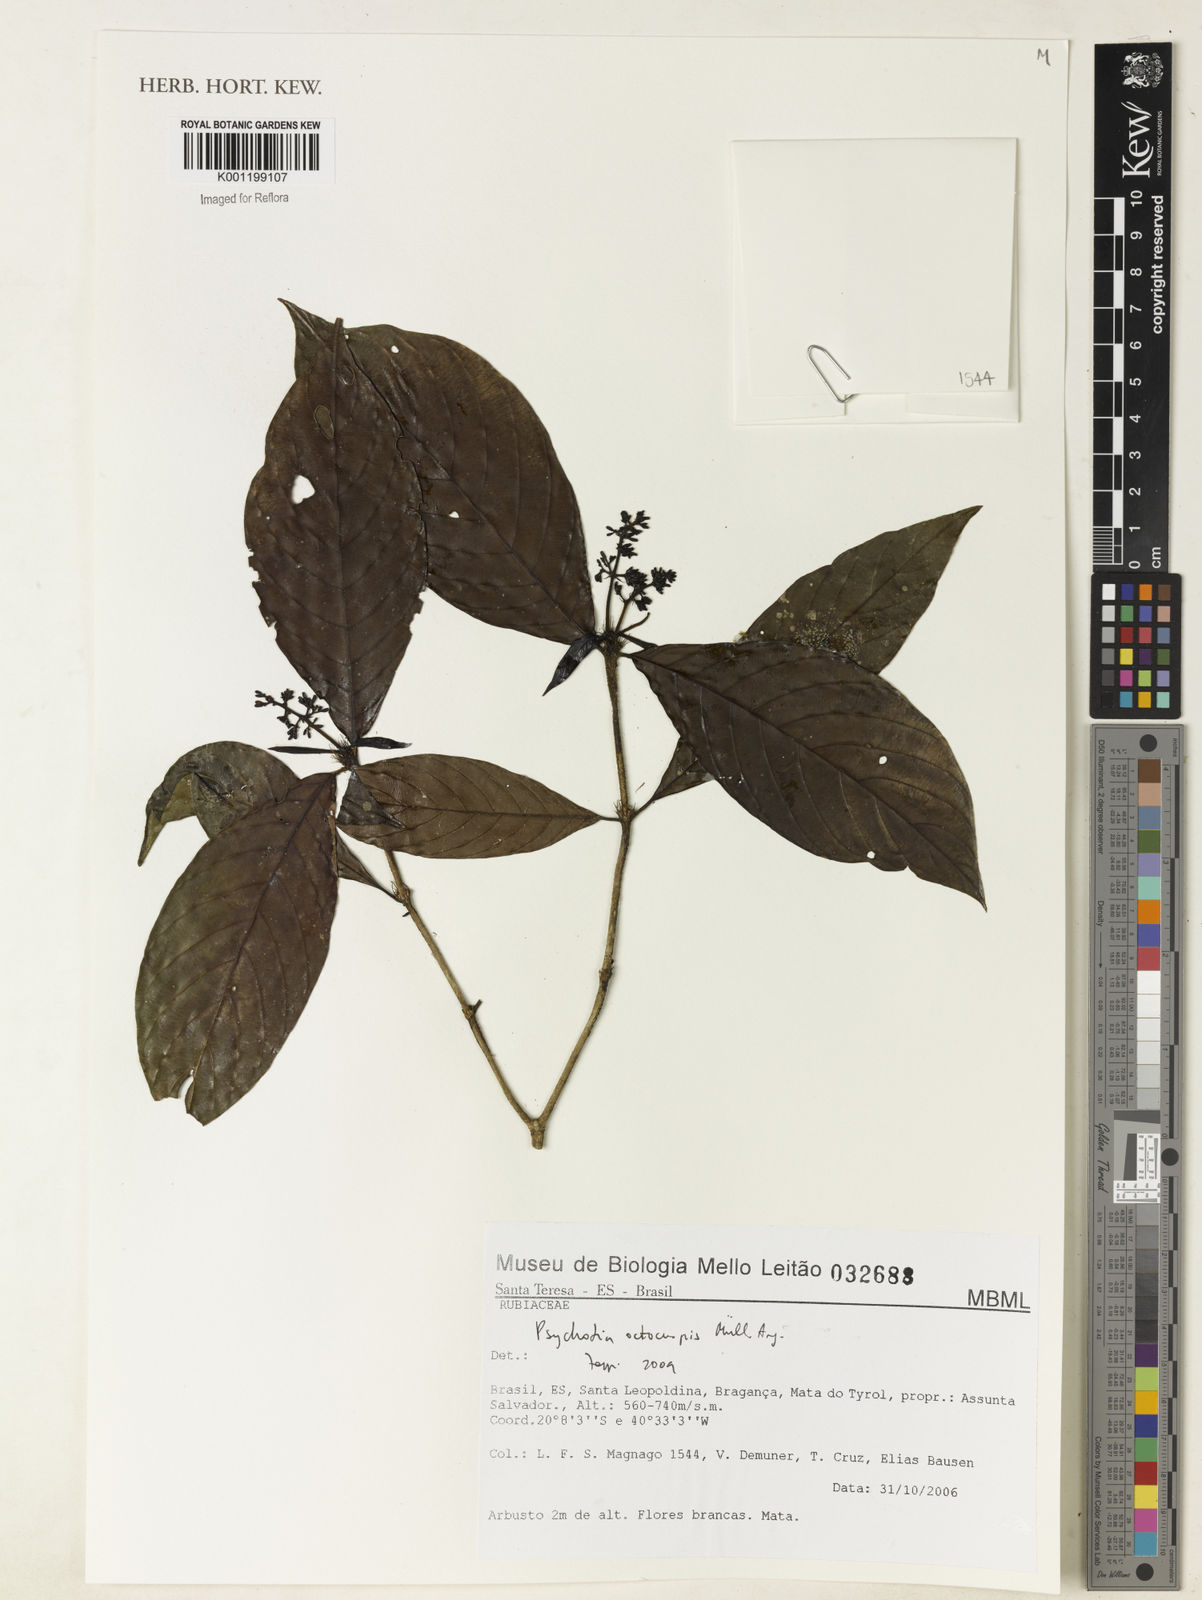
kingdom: Plantae
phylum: Tracheophyta
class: Magnoliopsida
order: Gentianales
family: Rubiaceae
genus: Psychotria
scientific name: Psychotria
